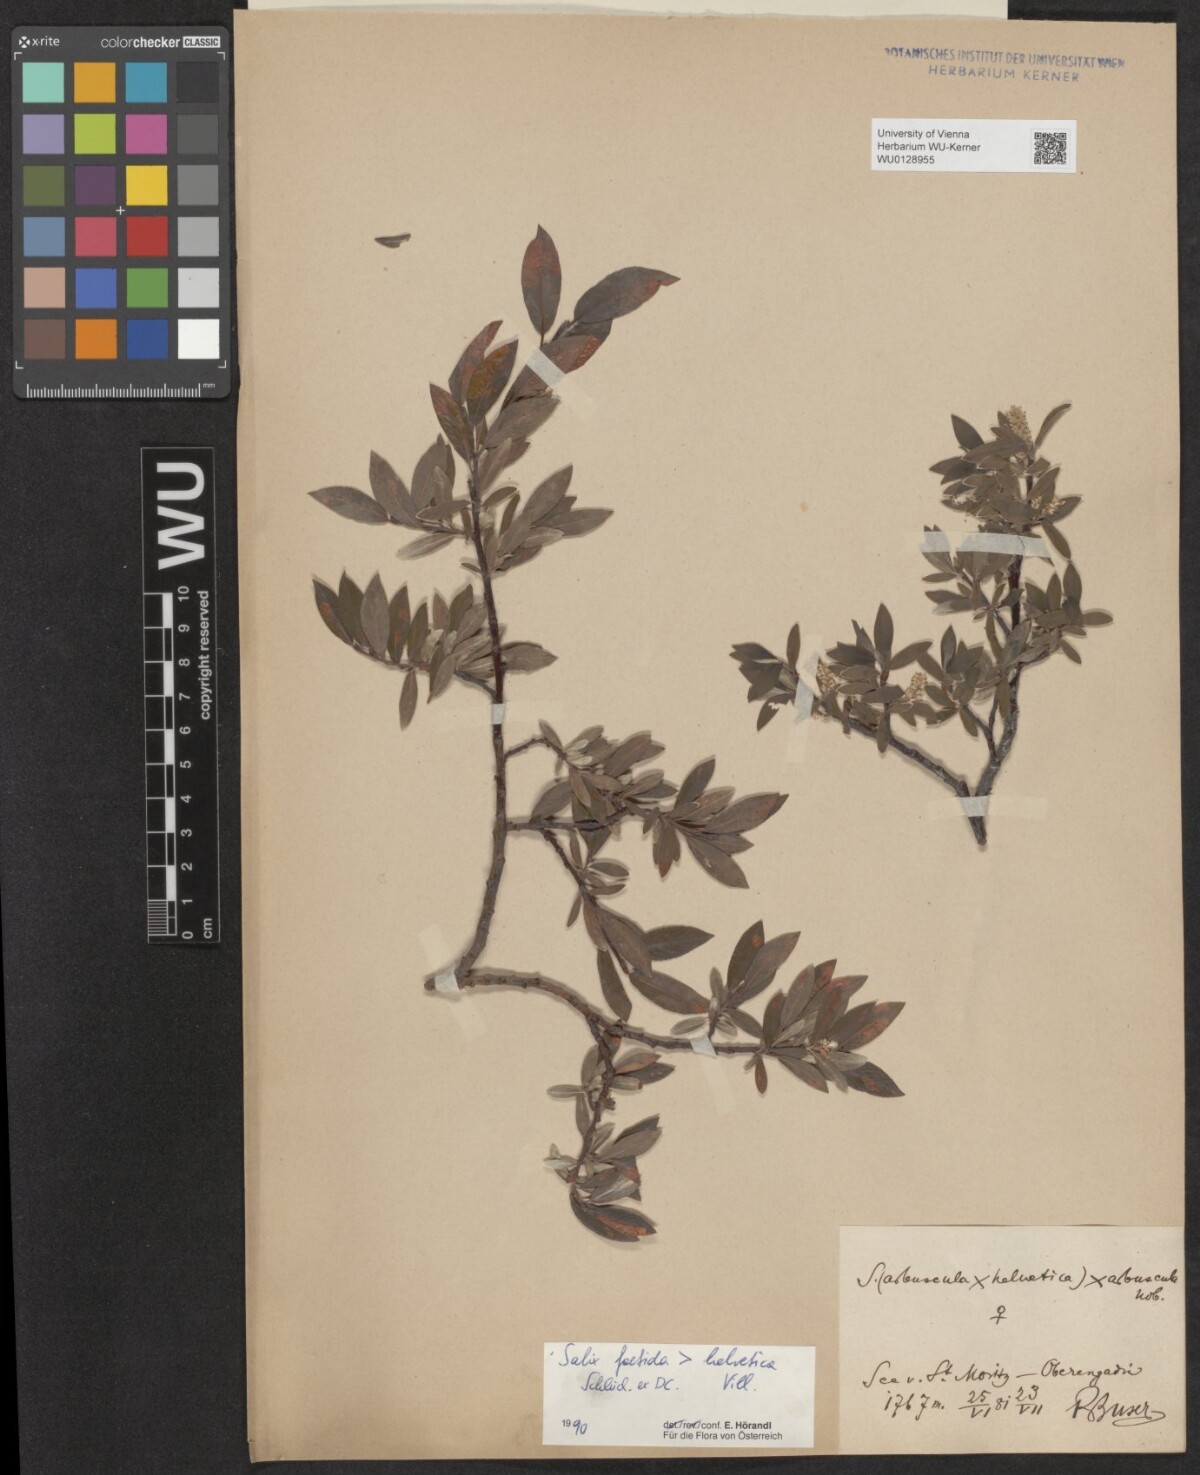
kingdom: Plantae
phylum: Tracheophyta
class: Magnoliopsida
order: Malpighiales
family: Salicaceae
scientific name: Salicaceae
